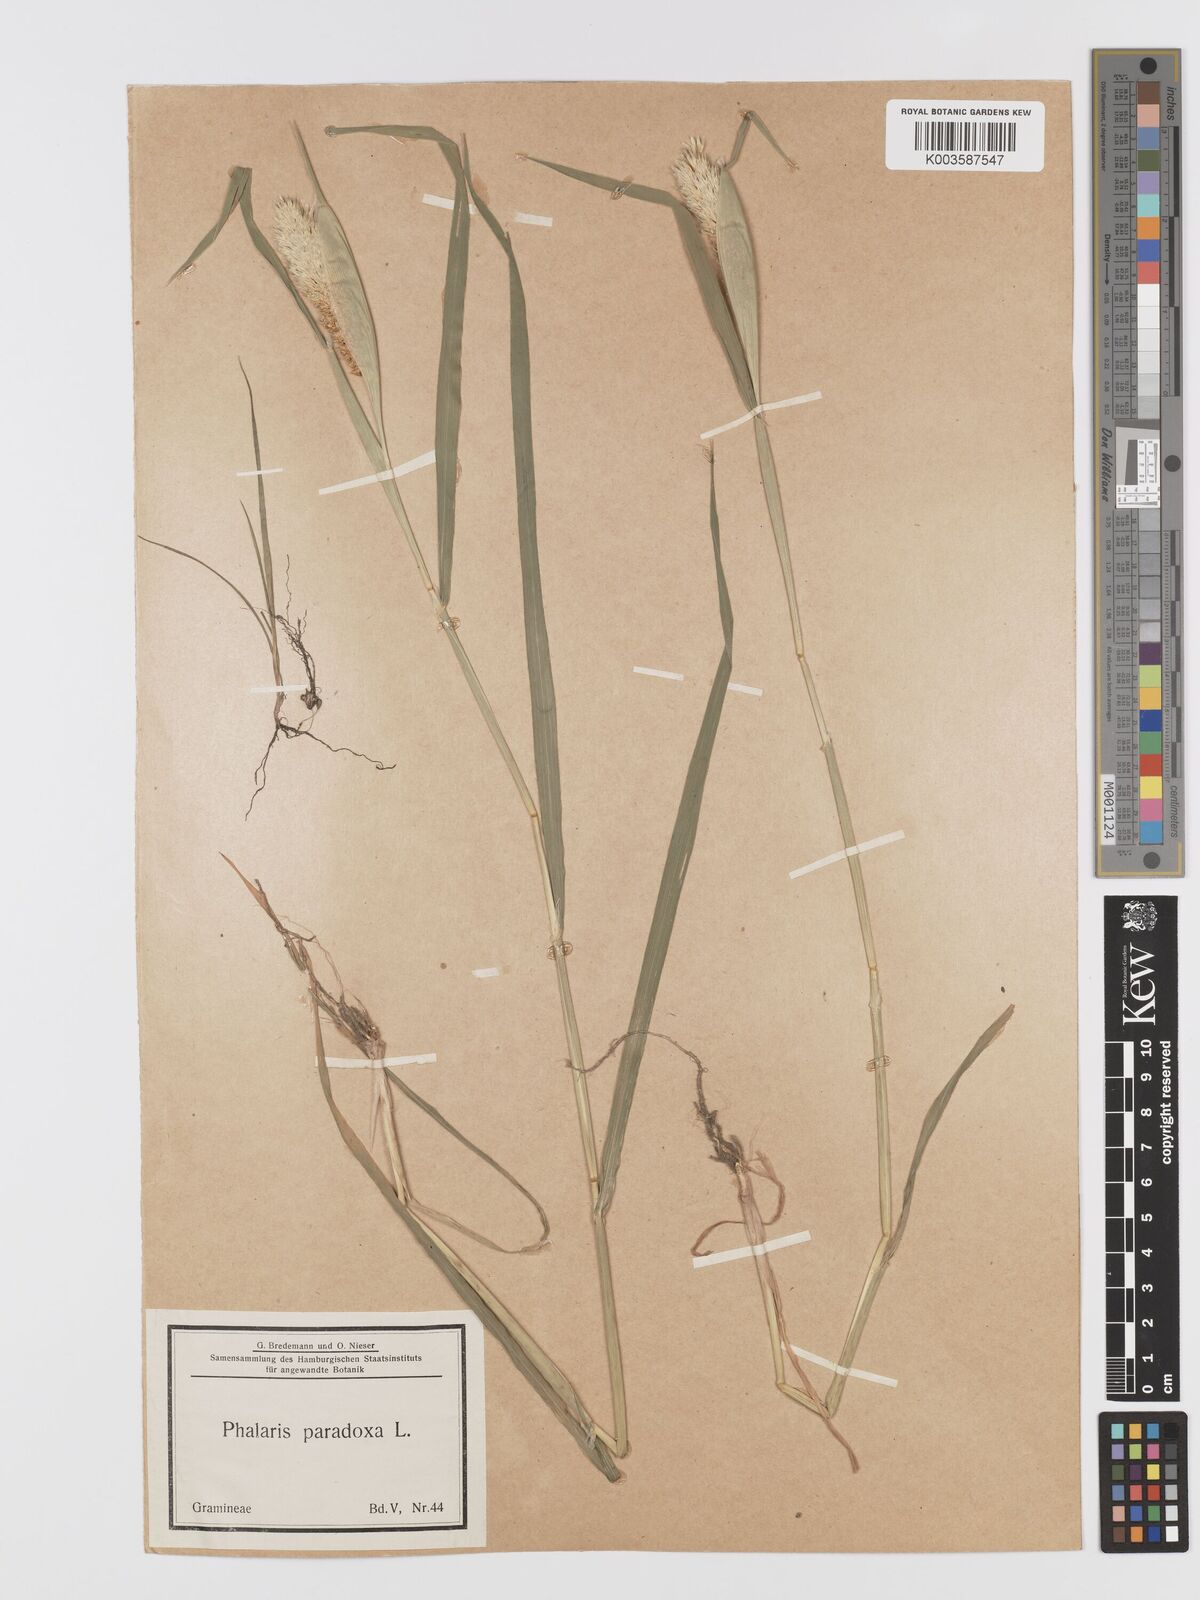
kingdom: Plantae
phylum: Tracheophyta
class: Liliopsida
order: Poales
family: Poaceae
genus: Phalaris
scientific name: Phalaris paradoxa
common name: Awned canary-grass
